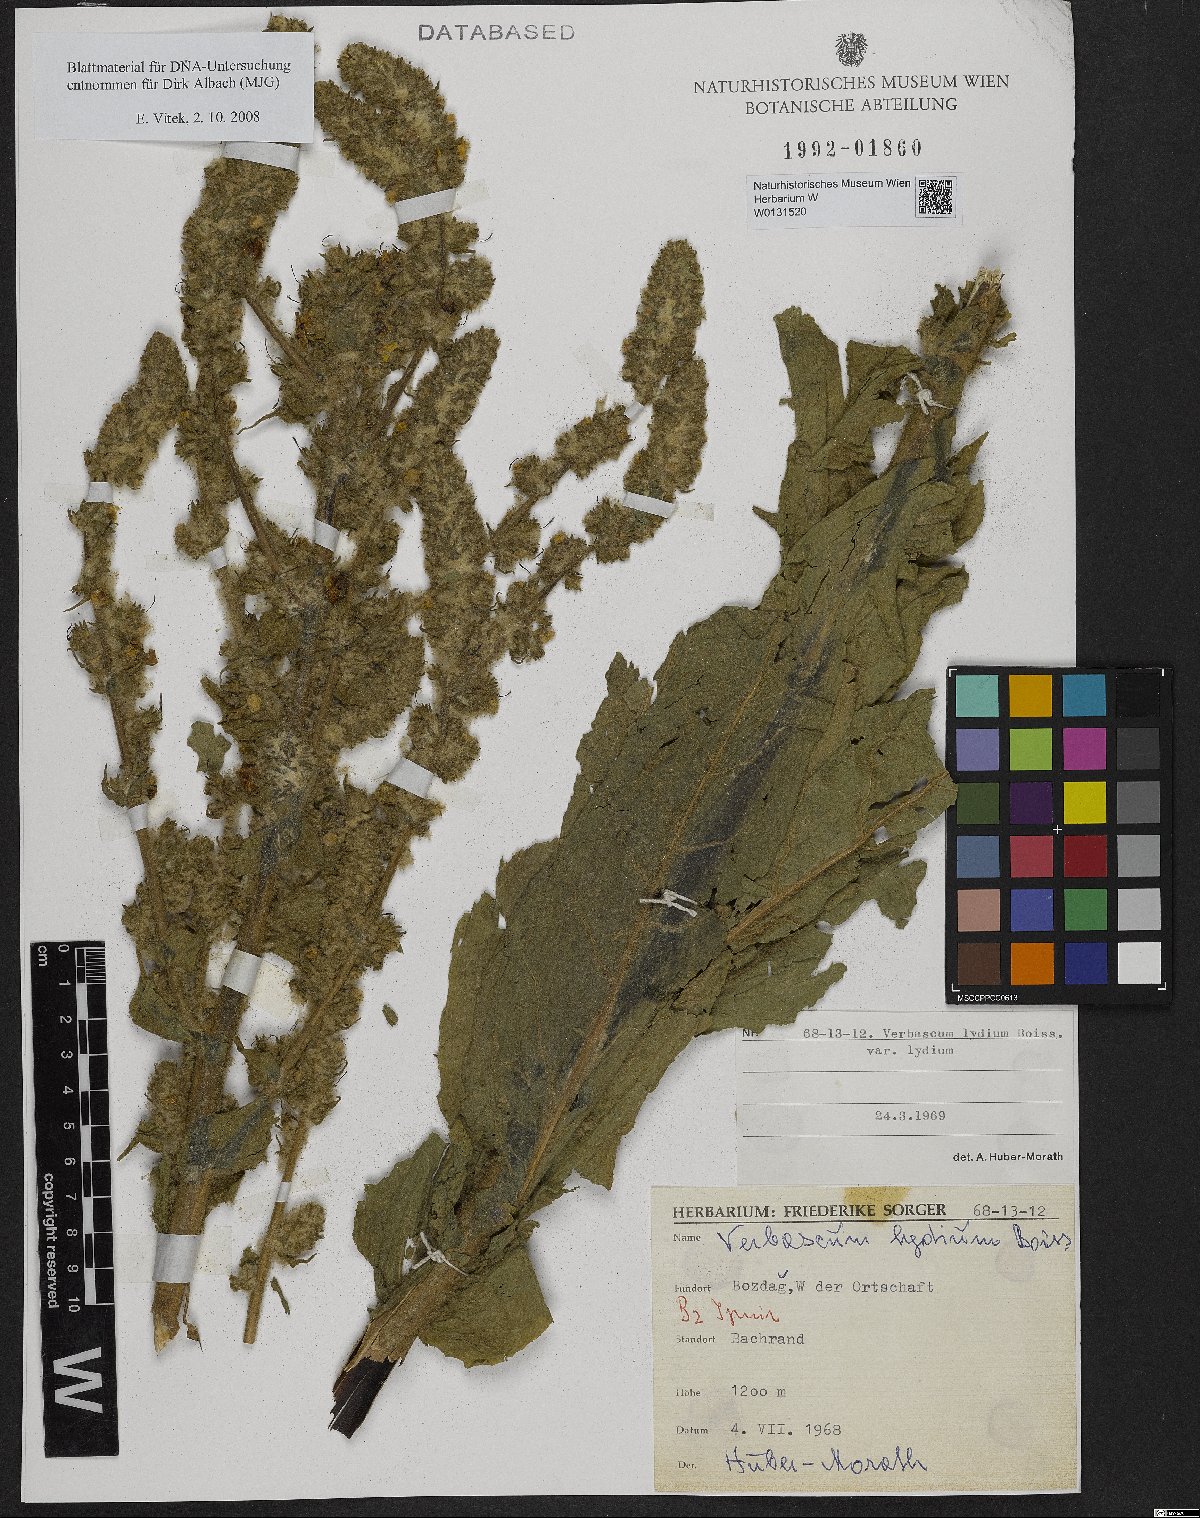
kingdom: Plantae
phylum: Tracheophyta
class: Magnoliopsida
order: Lamiales
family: Scrophulariaceae
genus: Verbascum
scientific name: Verbascum lydium
